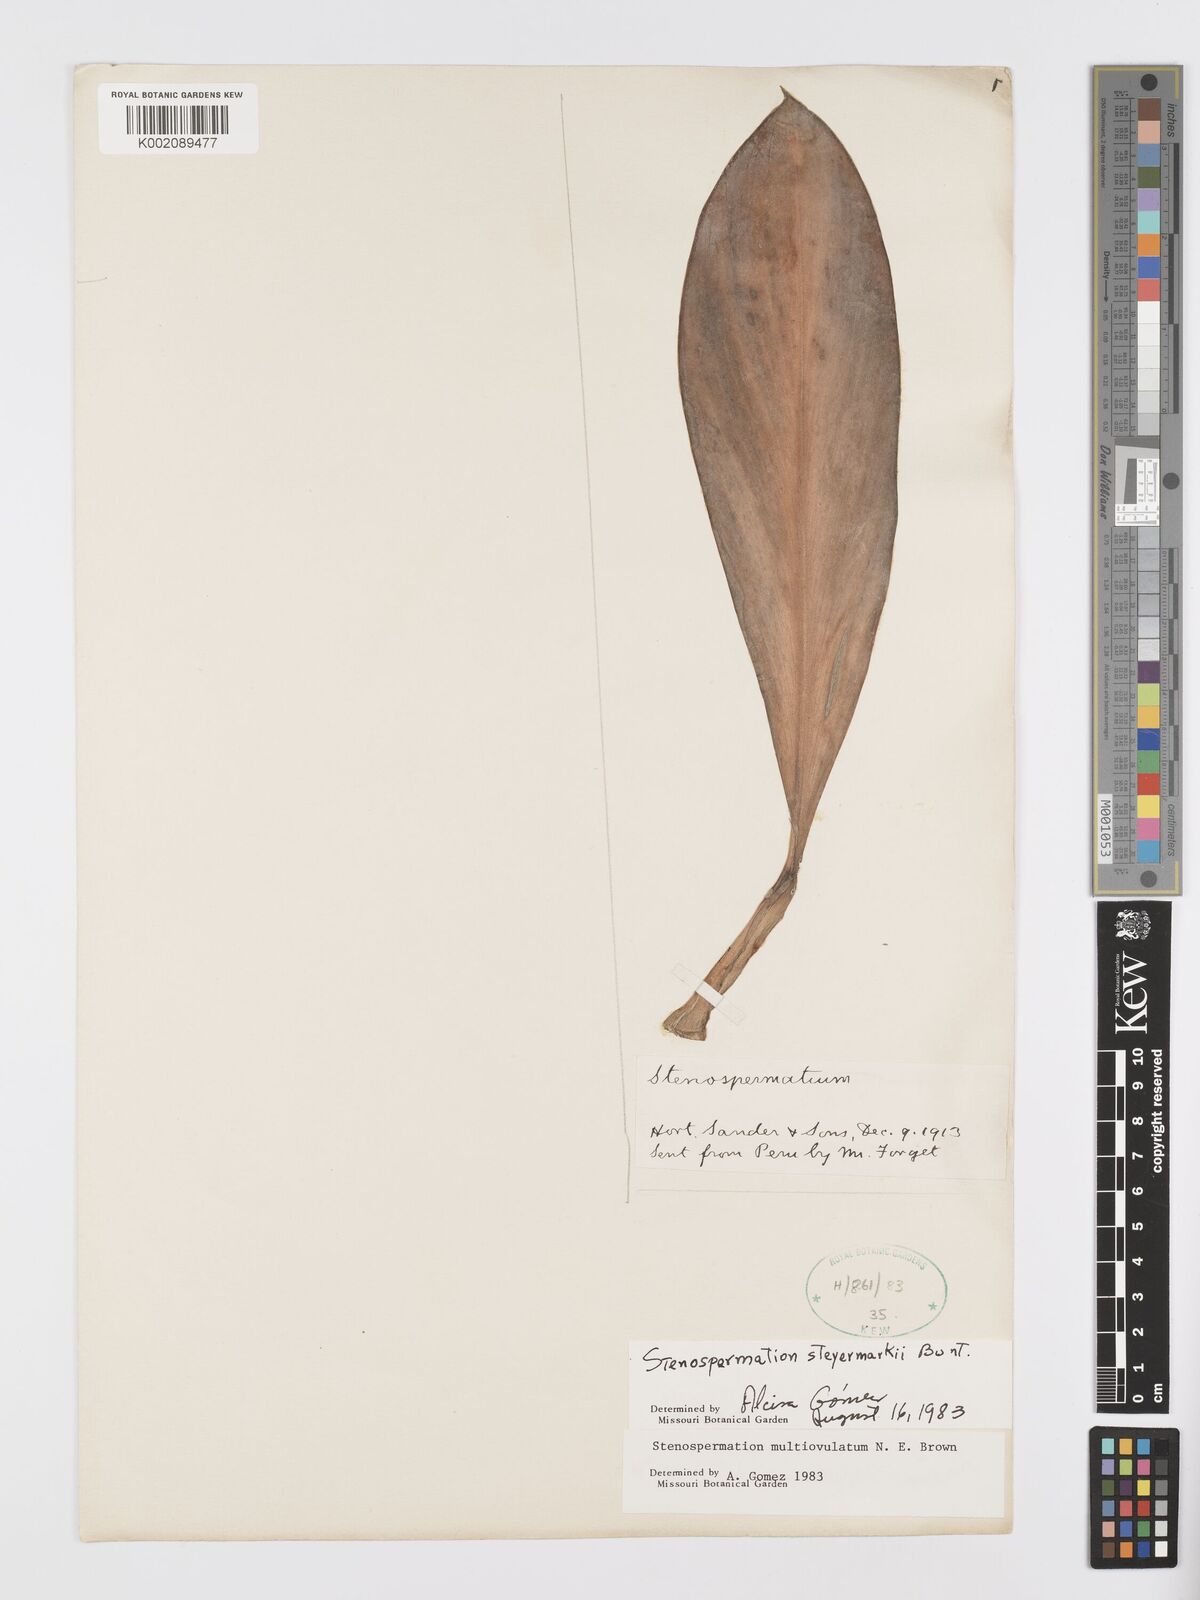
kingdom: Plantae
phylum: Tracheophyta
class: Liliopsida
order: Alismatales
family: Araceae
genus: Stenospermation
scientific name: Stenospermation steyermarkii
